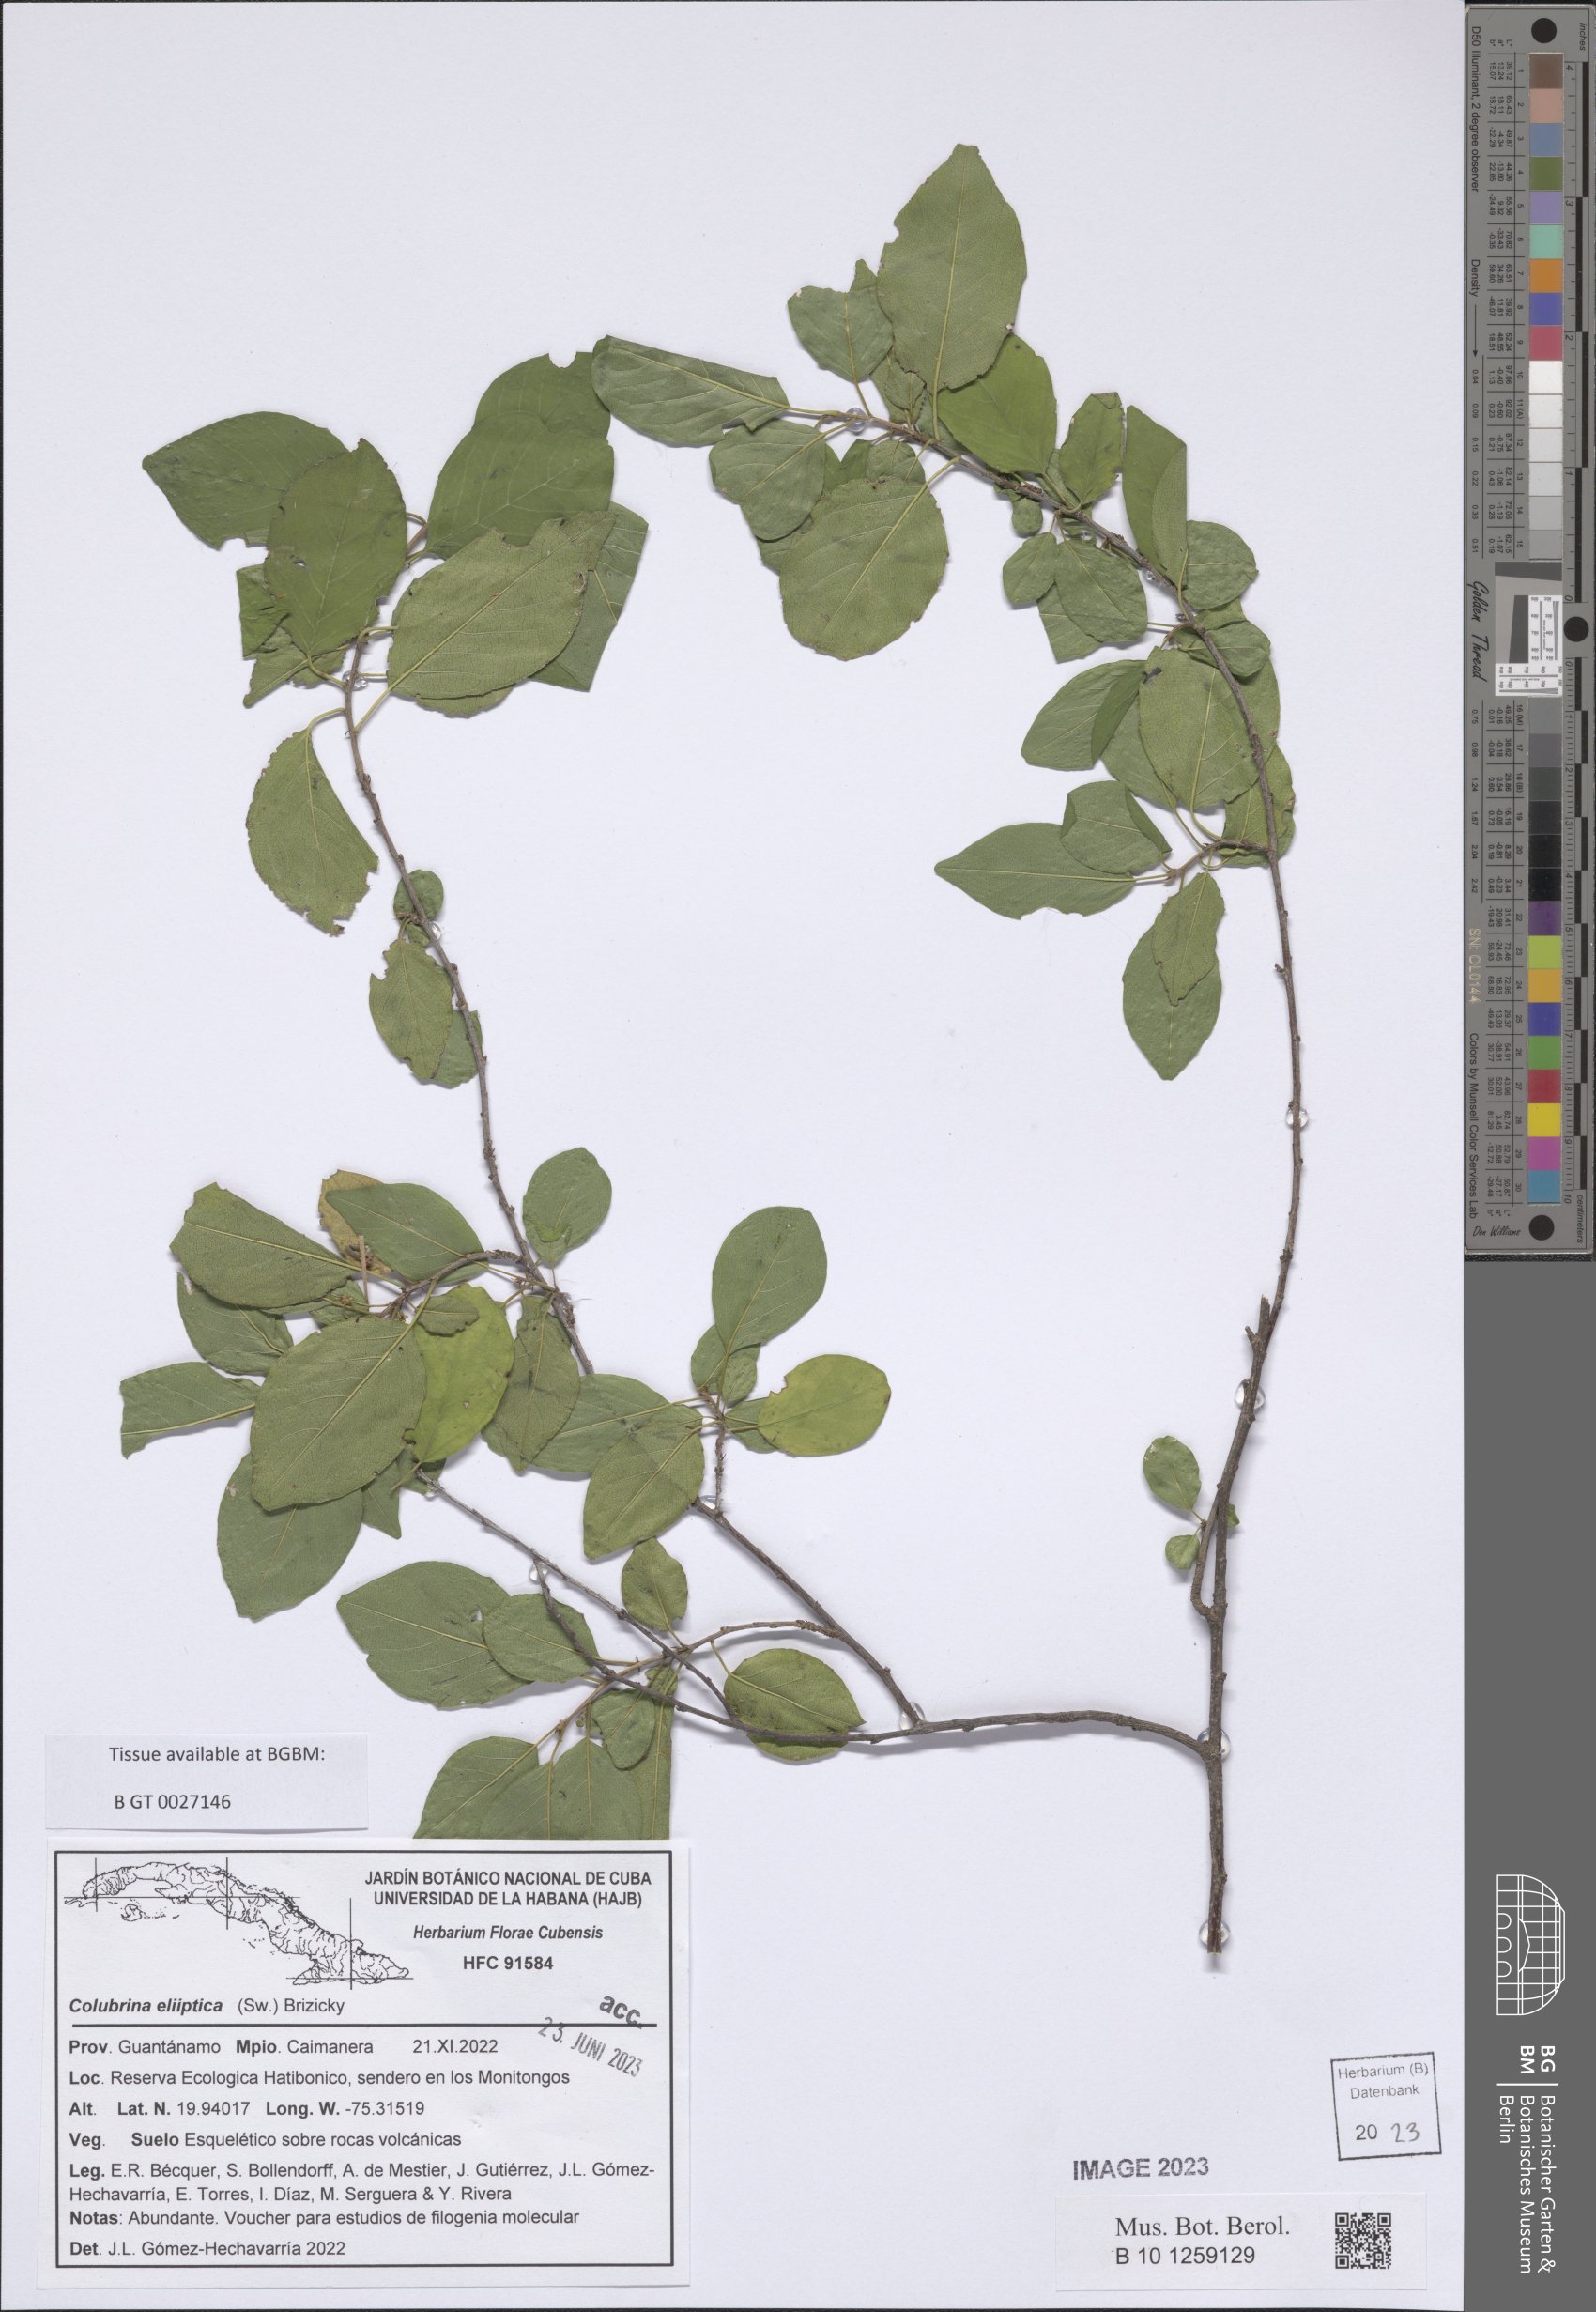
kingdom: Plantae
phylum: Tracheophyta
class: Magnoliopsida
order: Rosales
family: Rhamnaceae
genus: Colubrina
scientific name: Colubrina elliptica
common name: Soldierwood
